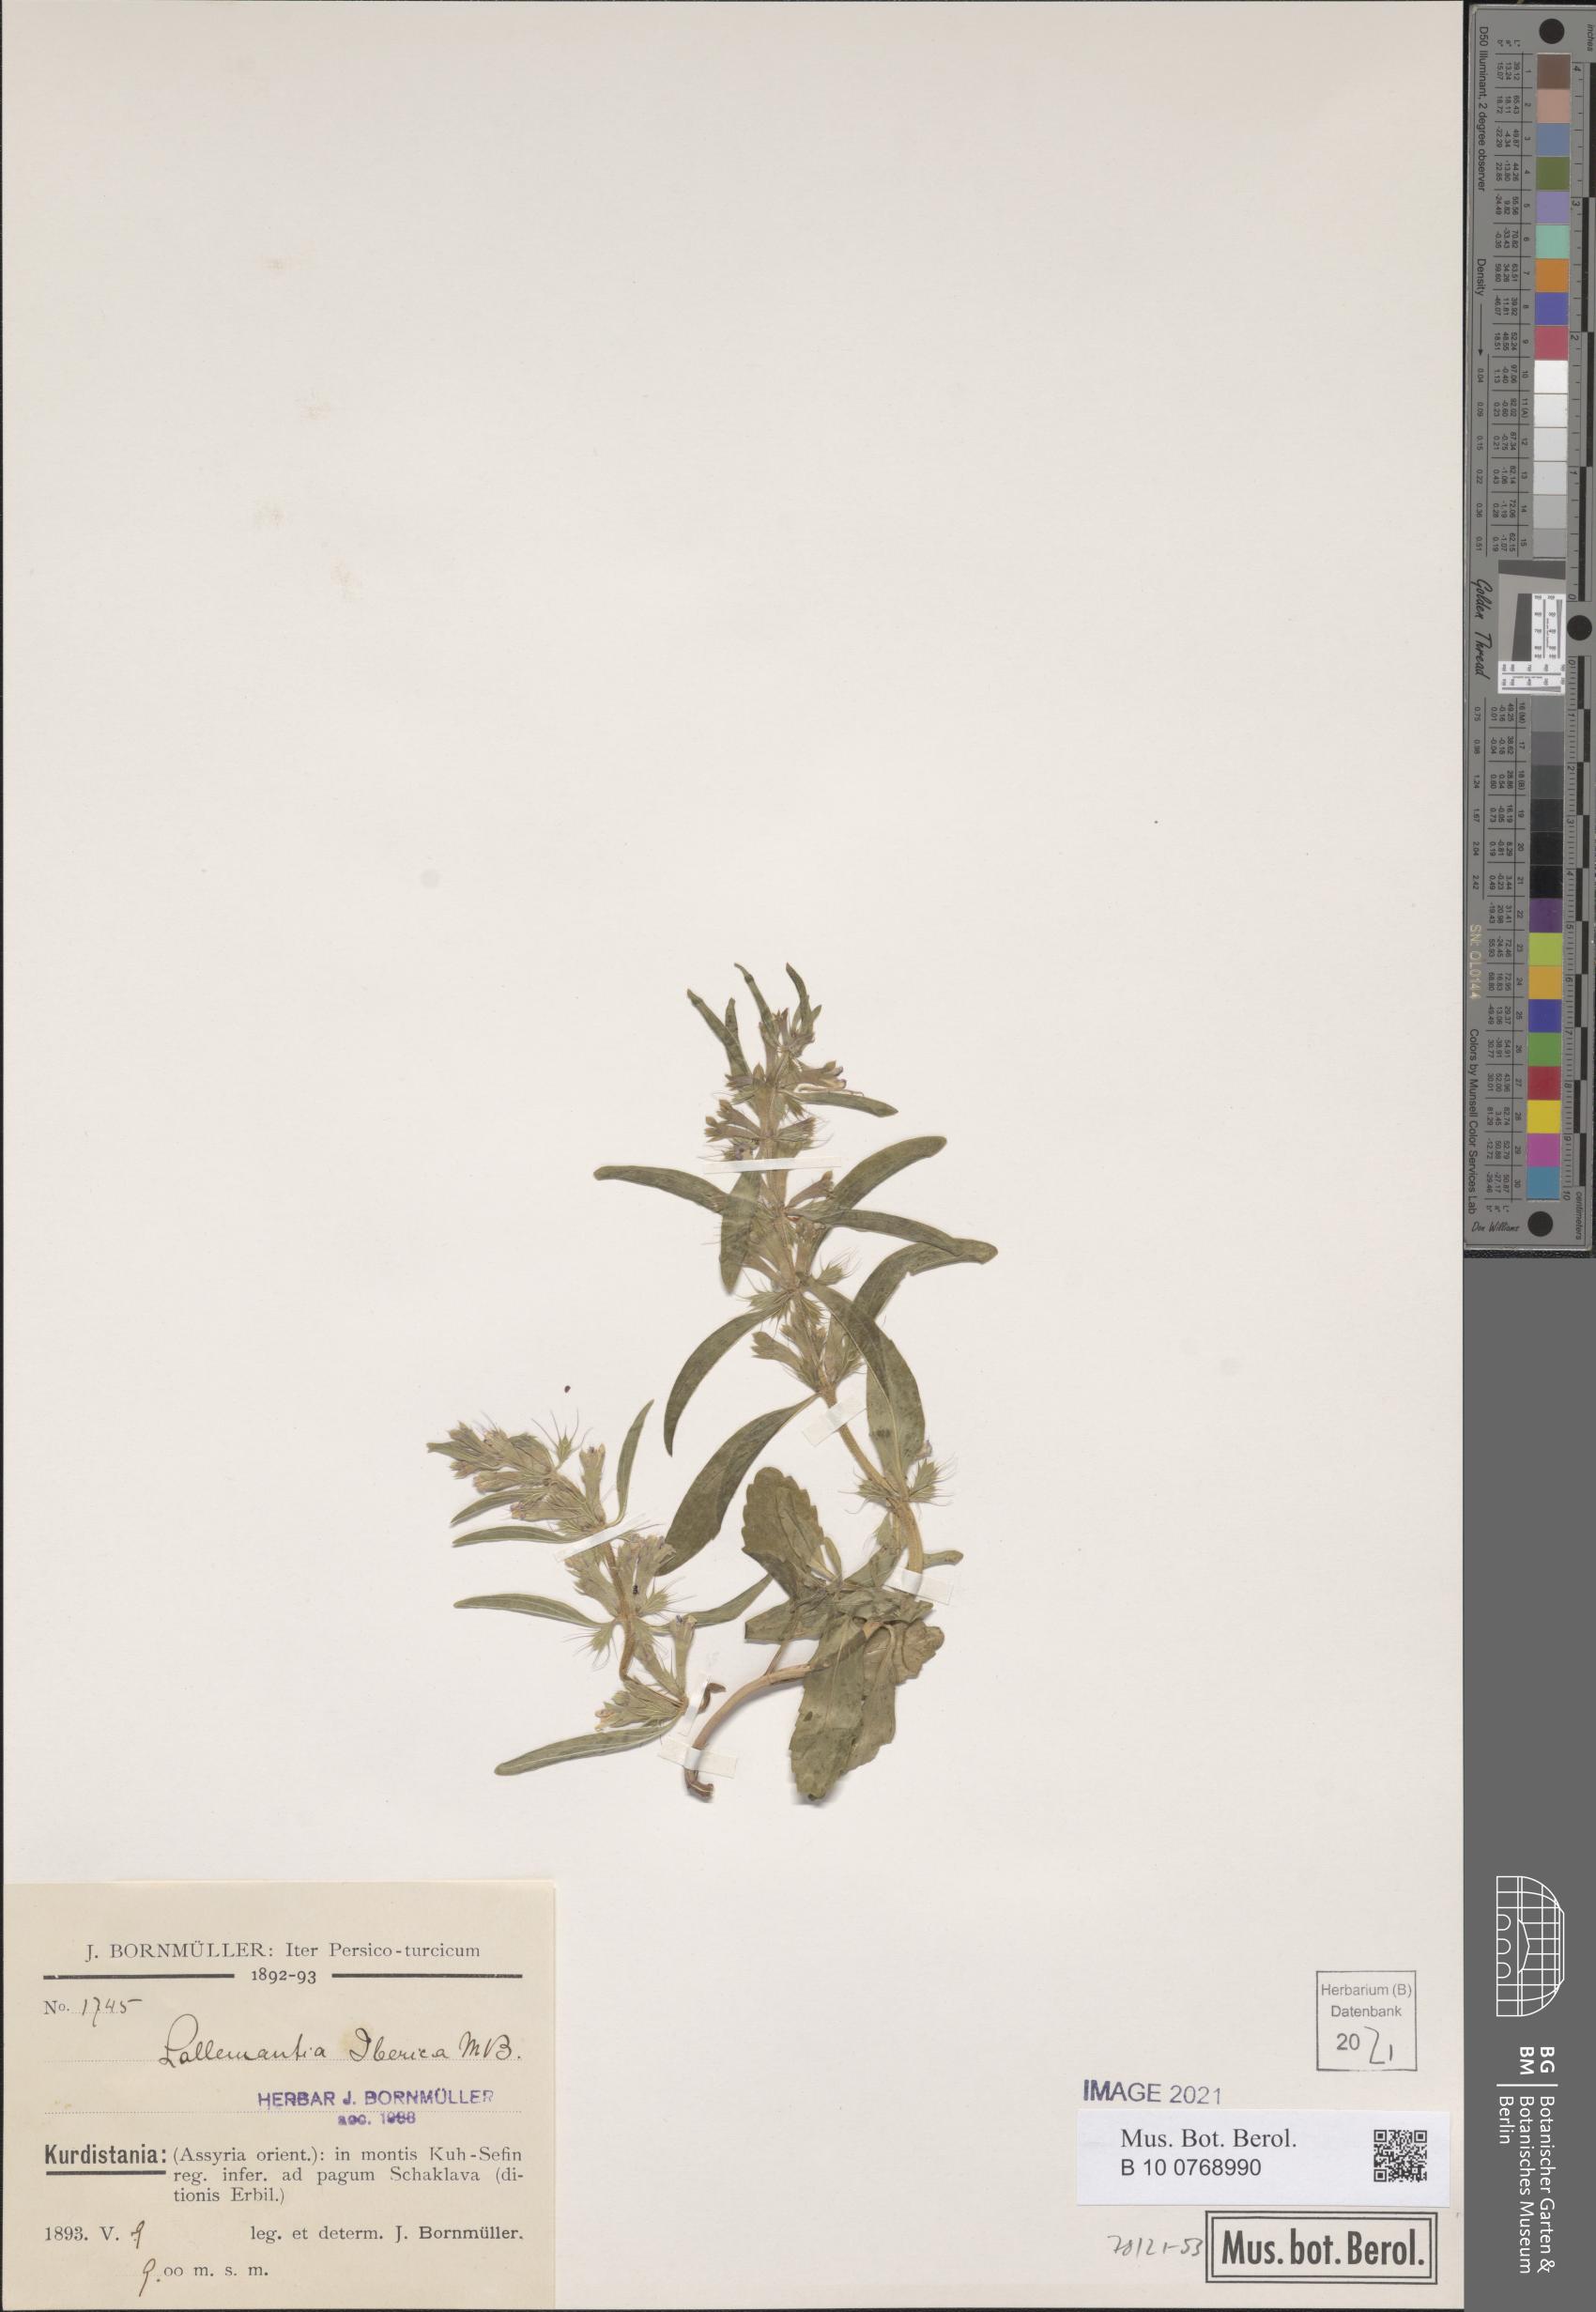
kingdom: Plantae
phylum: Tracheophyta
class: Magnoliopsida
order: Lamiales
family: Lamiaceae
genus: Lallemantia
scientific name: Lallemantia iberica
